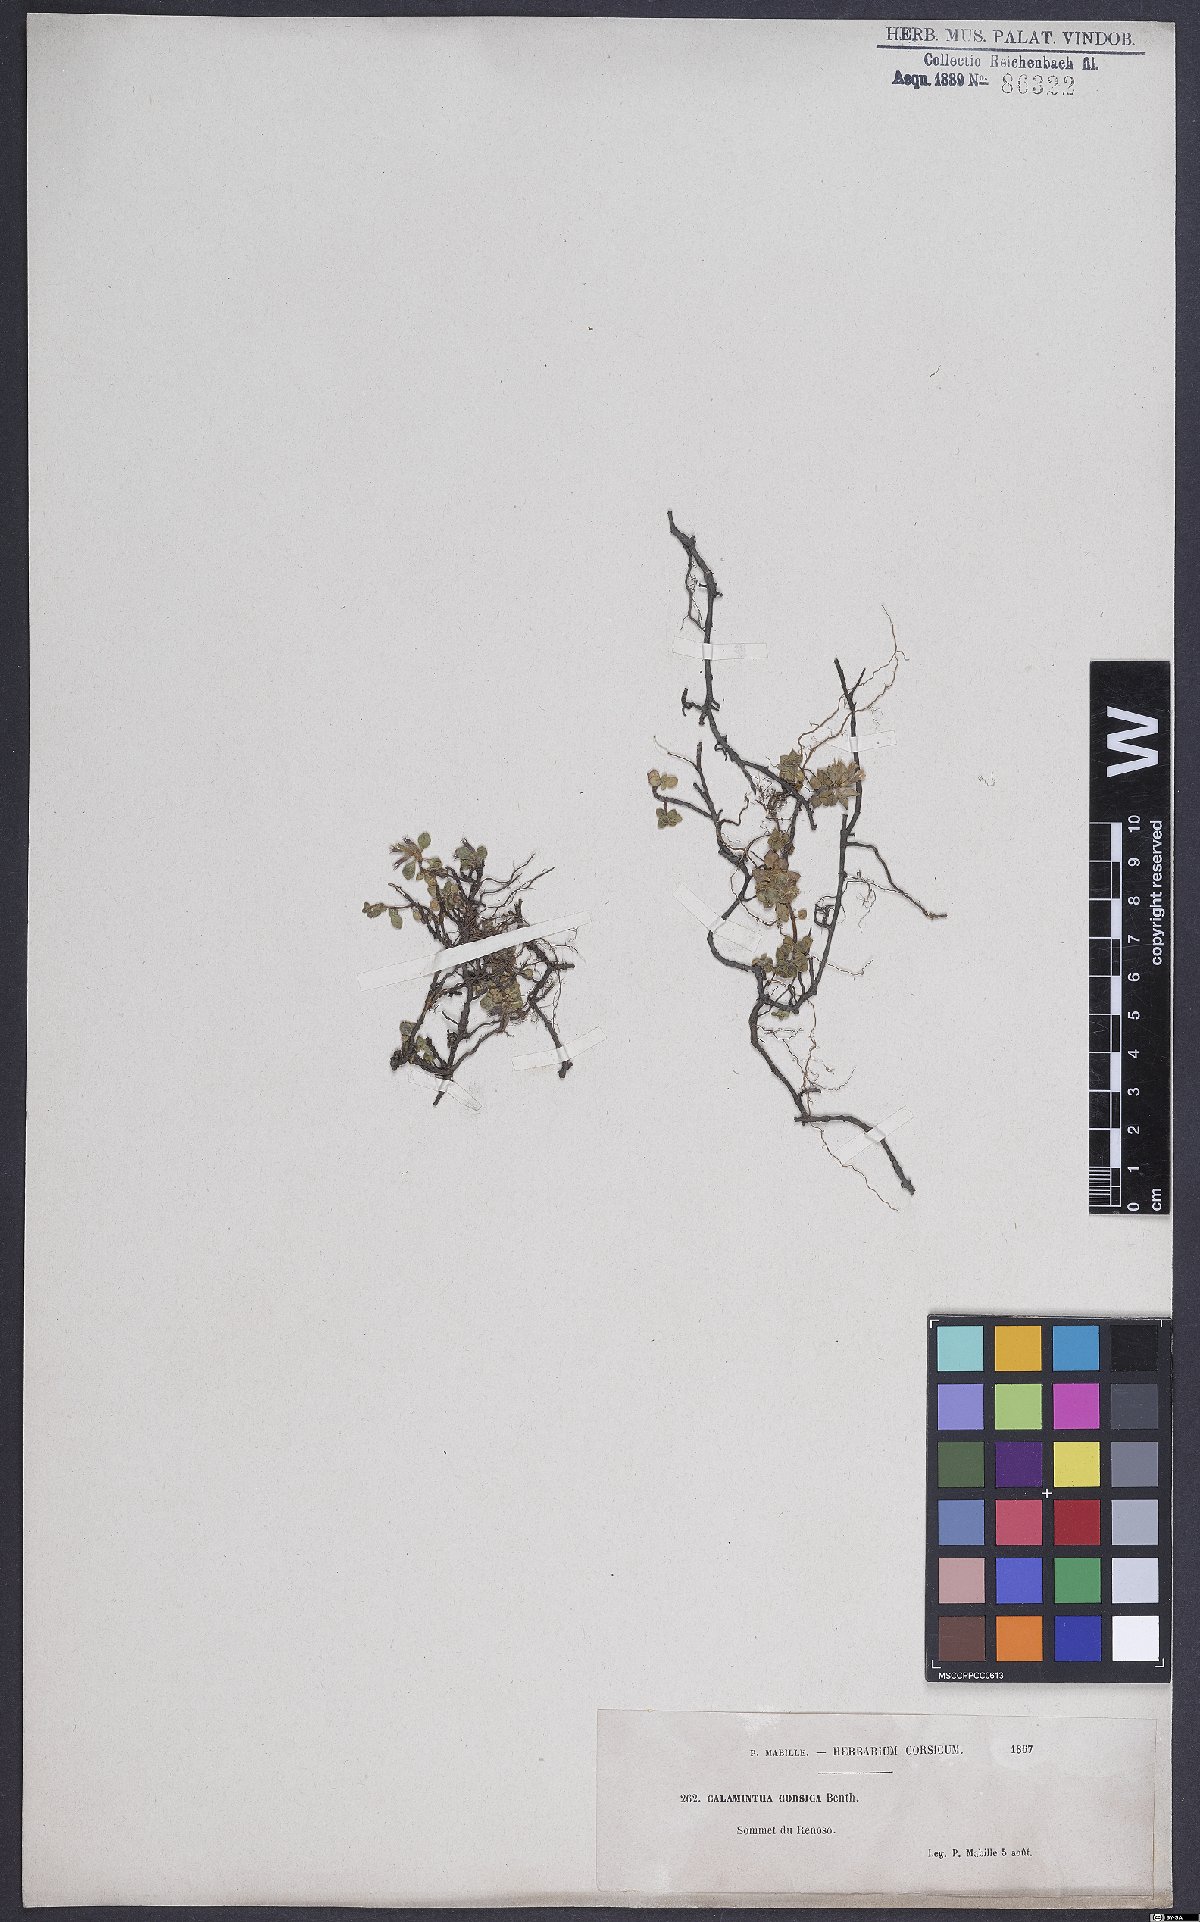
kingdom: Plantae
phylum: Tracheophyta
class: Magnoliopsida
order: Lamiales
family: Lamiaceae
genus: Calamintha
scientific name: Calamintha
